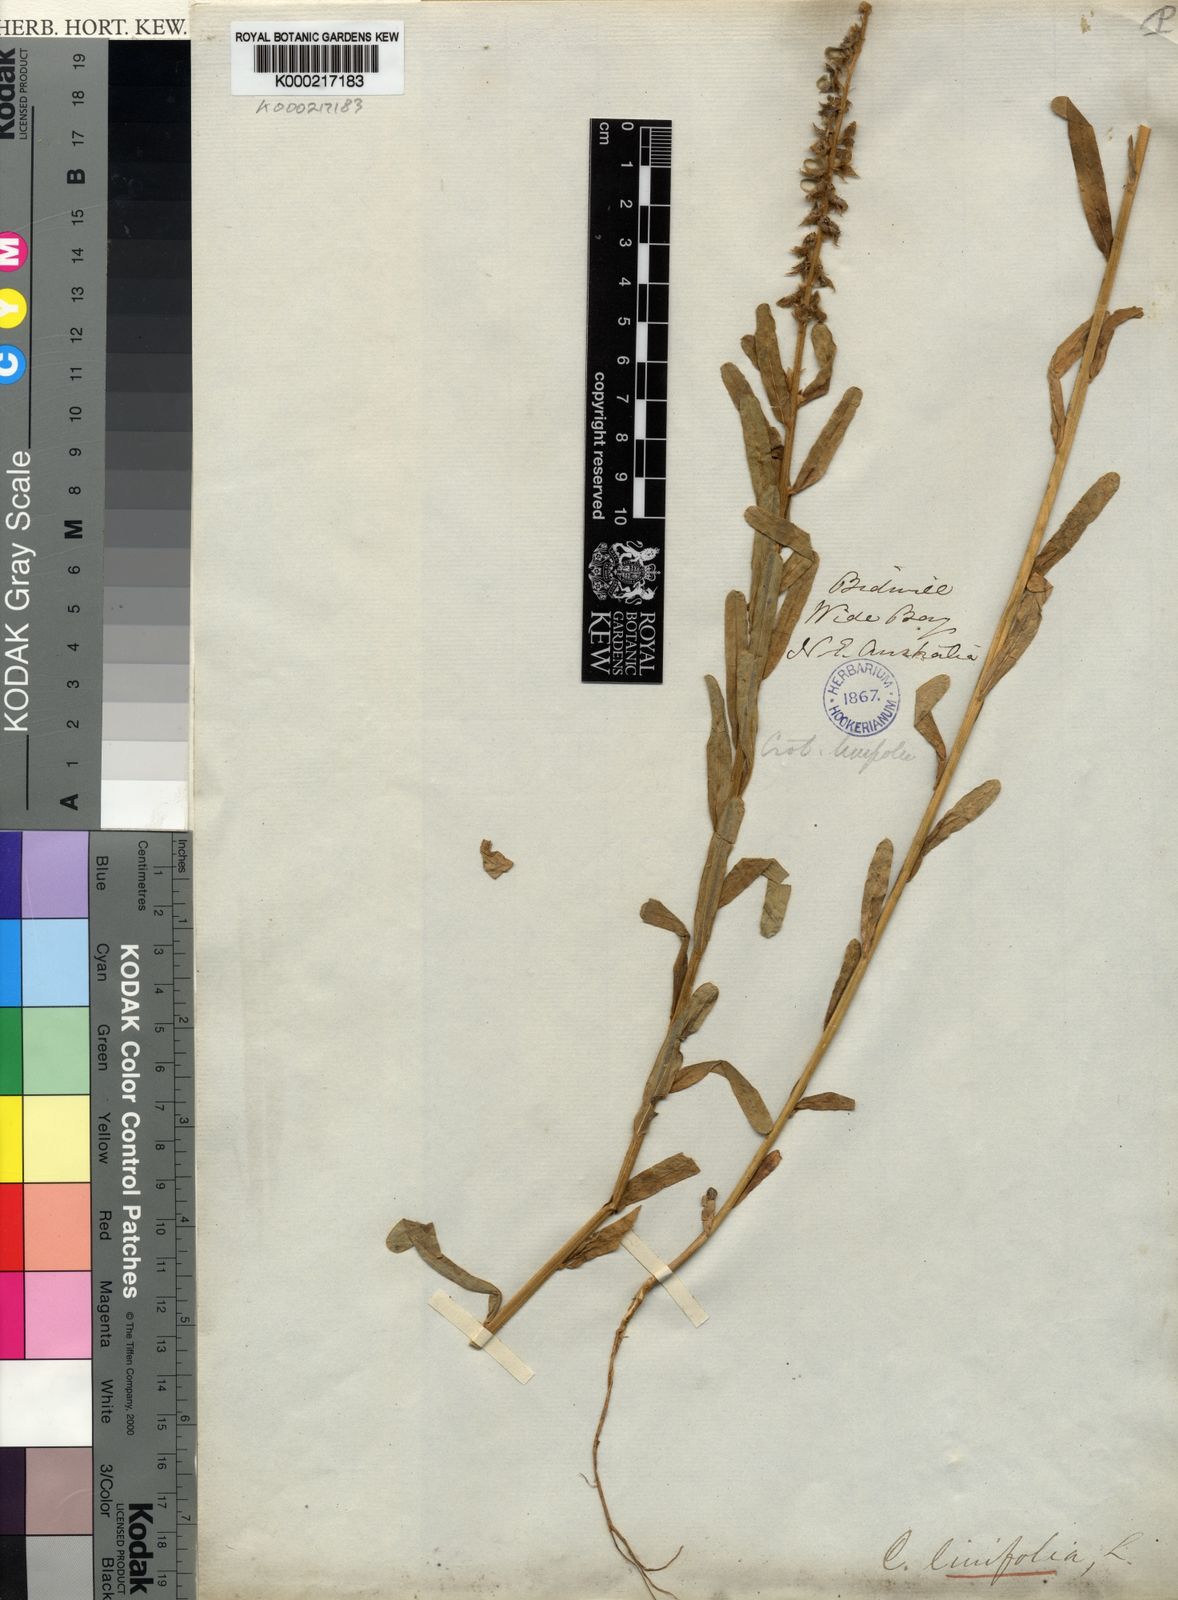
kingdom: Plantae
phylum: Tracheophyta
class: Magnoliopsida
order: Fabales
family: Fabaceae
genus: Crotalaria
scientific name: Crotalaria linifolia
